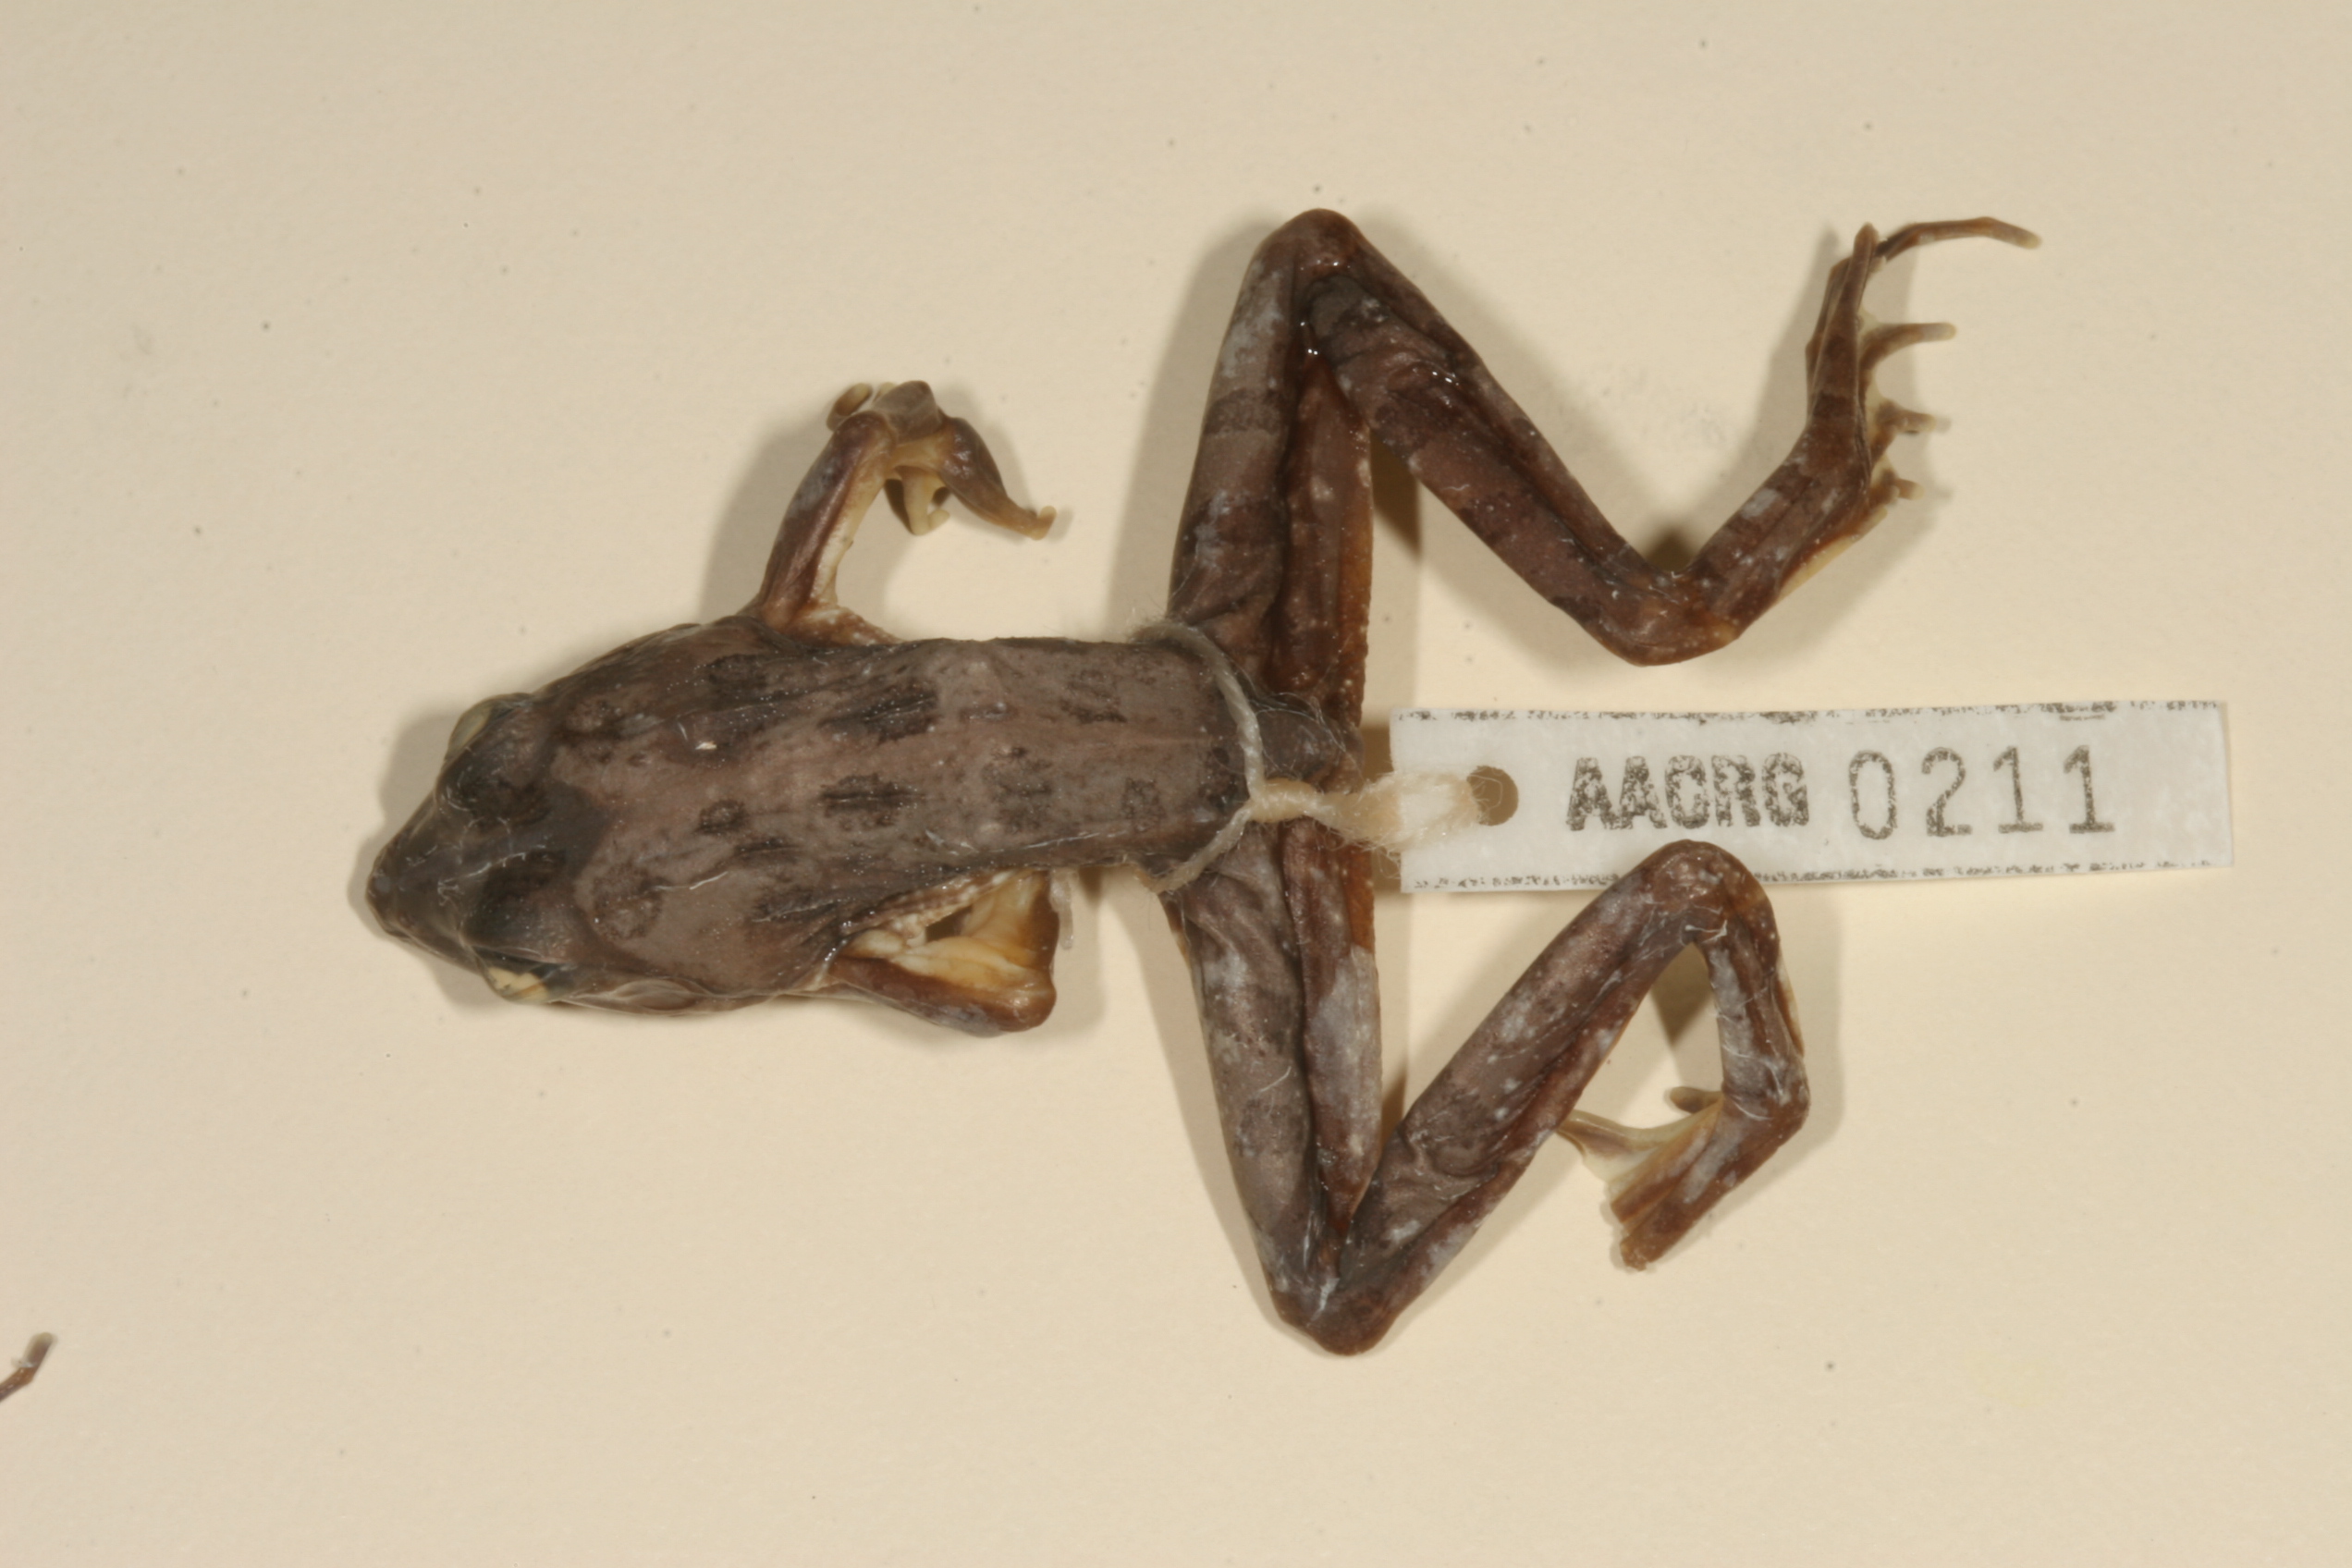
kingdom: Animalia
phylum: Chordata
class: Amphibia
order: Anura
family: Pyxicephalidae
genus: Amietia
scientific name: Amietia angolensis
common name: Dusky-throated frog
